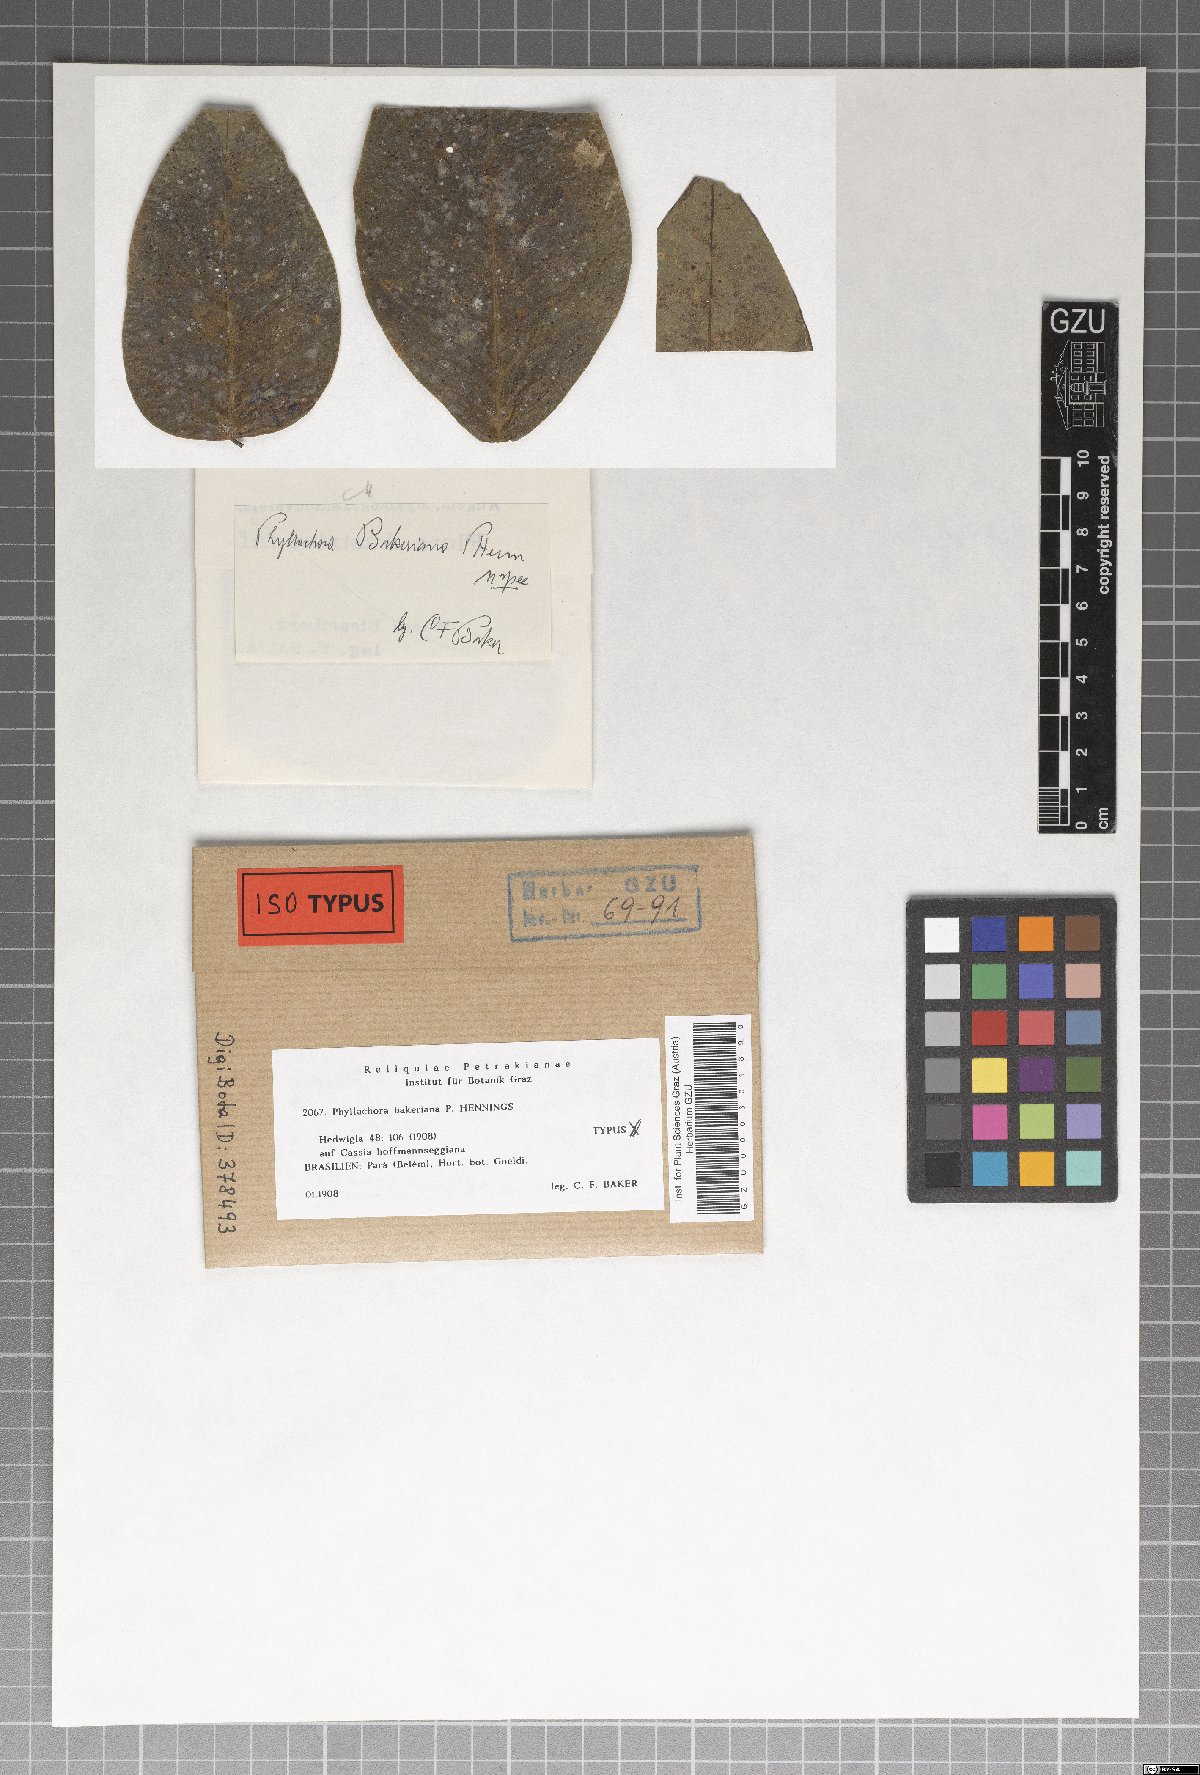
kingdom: Fungi
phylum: Ascomycota
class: Sordariomycetes
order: Phyllachorales
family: Phyllachoraceae
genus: Phyllachora
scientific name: Phyllachora bakeriana
